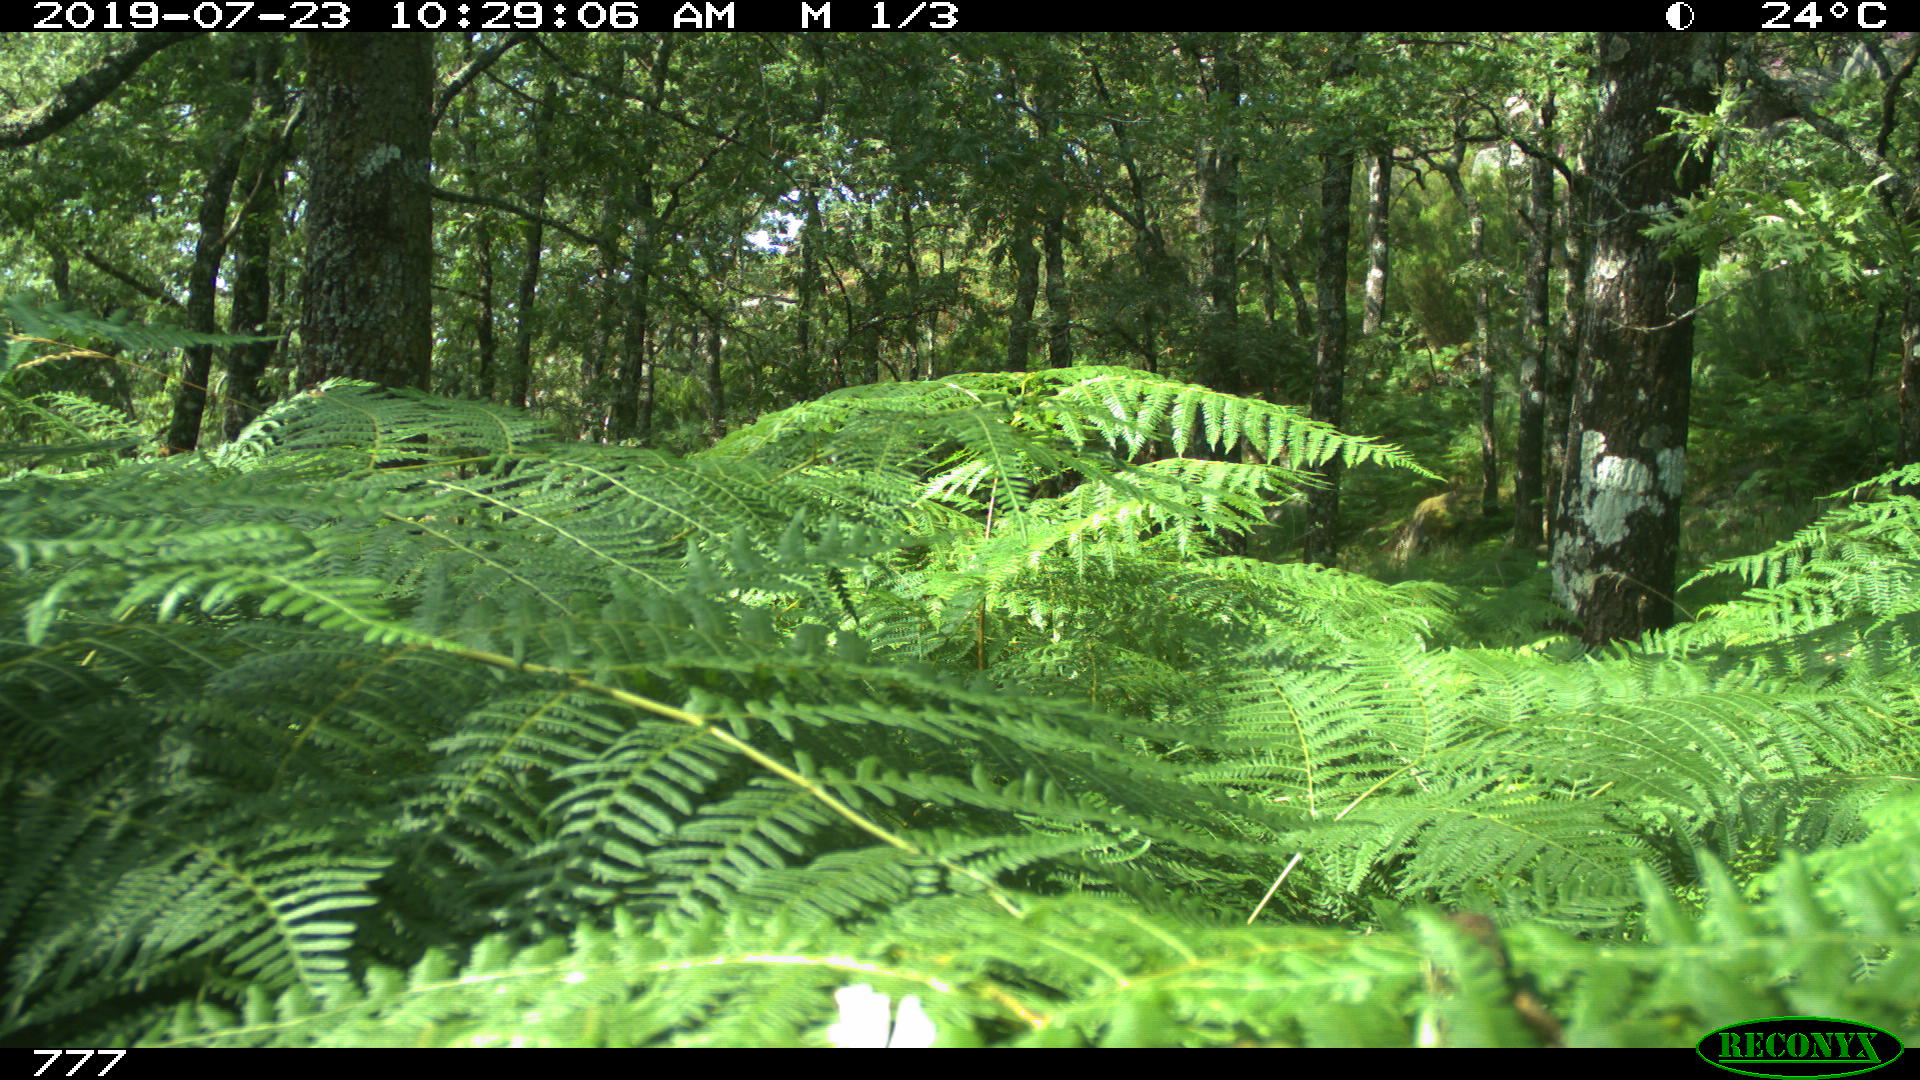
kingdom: Animalia
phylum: Chordata
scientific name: Chordata
